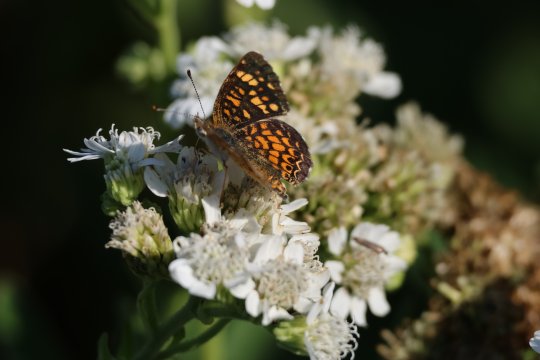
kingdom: Animalia
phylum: Arthropoda
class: Insecta
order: Lepidoptera
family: Nymphalidae
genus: Phyciodes
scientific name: Phyciodes vesta
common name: Vesta Crescent
